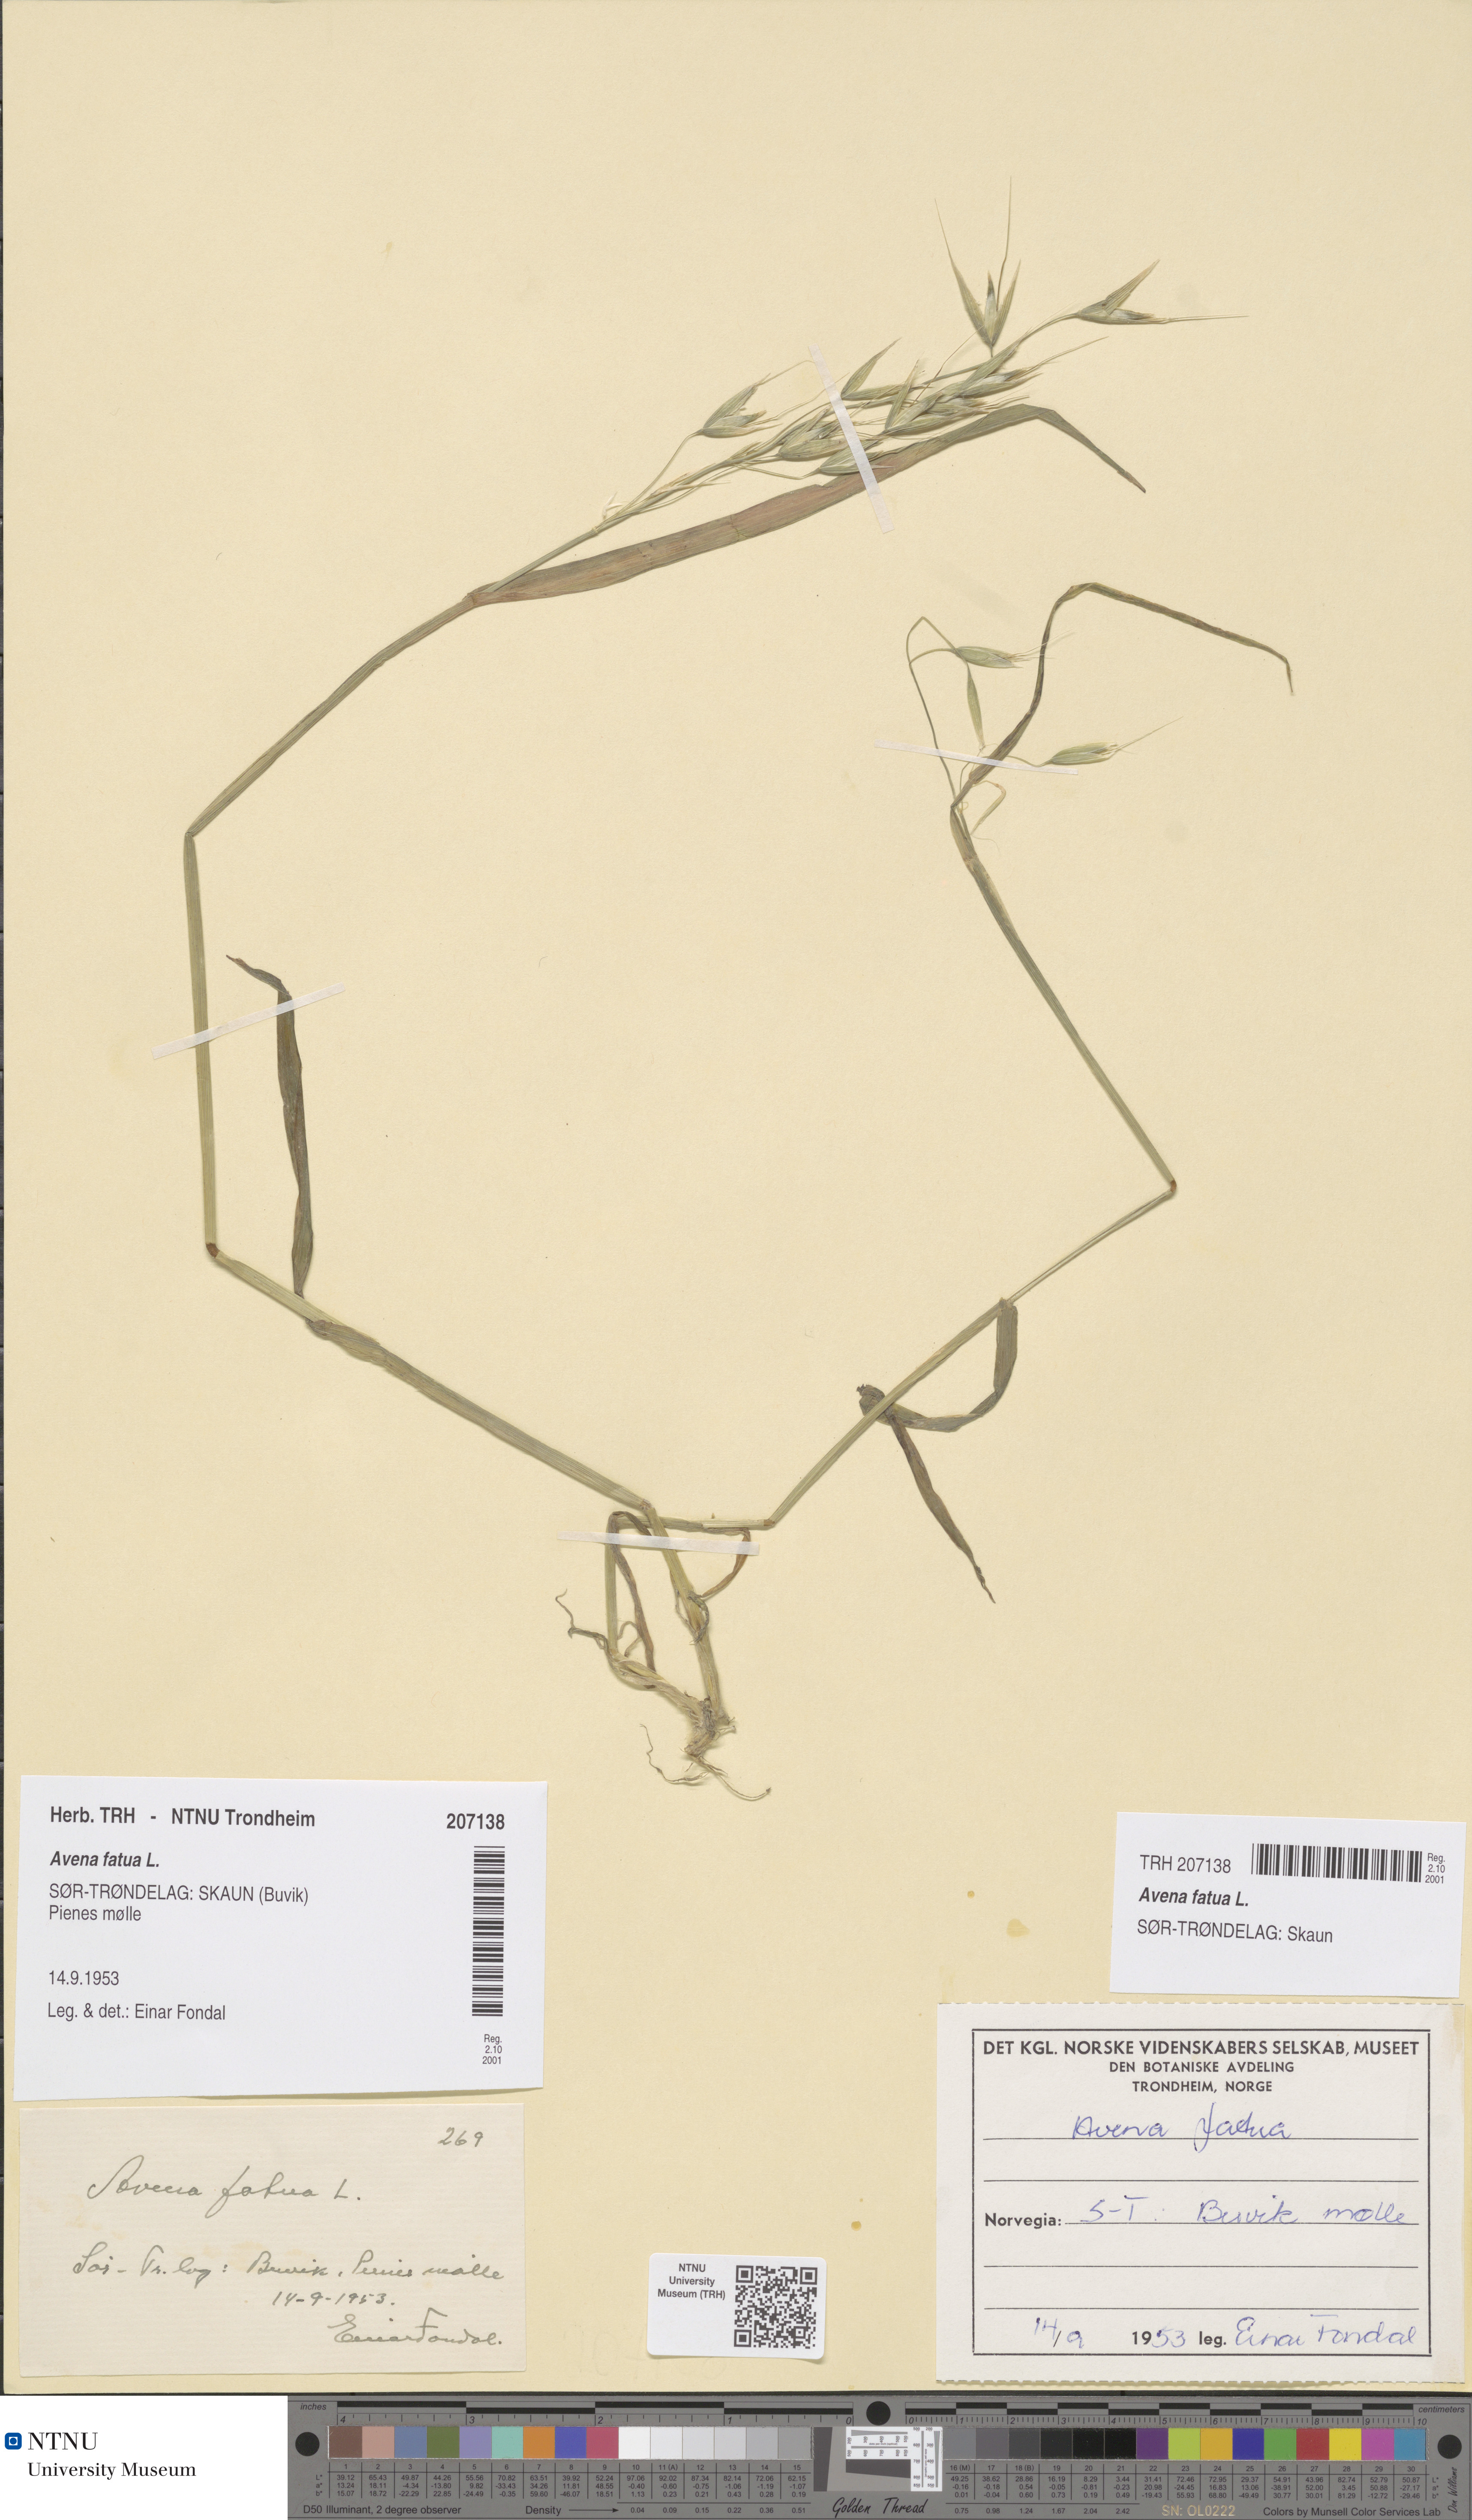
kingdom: Plantae
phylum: Tracheophyta
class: Liliopsida
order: Poales
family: Poaceae
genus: Avena
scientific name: Avena fatua
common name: Wild oat
